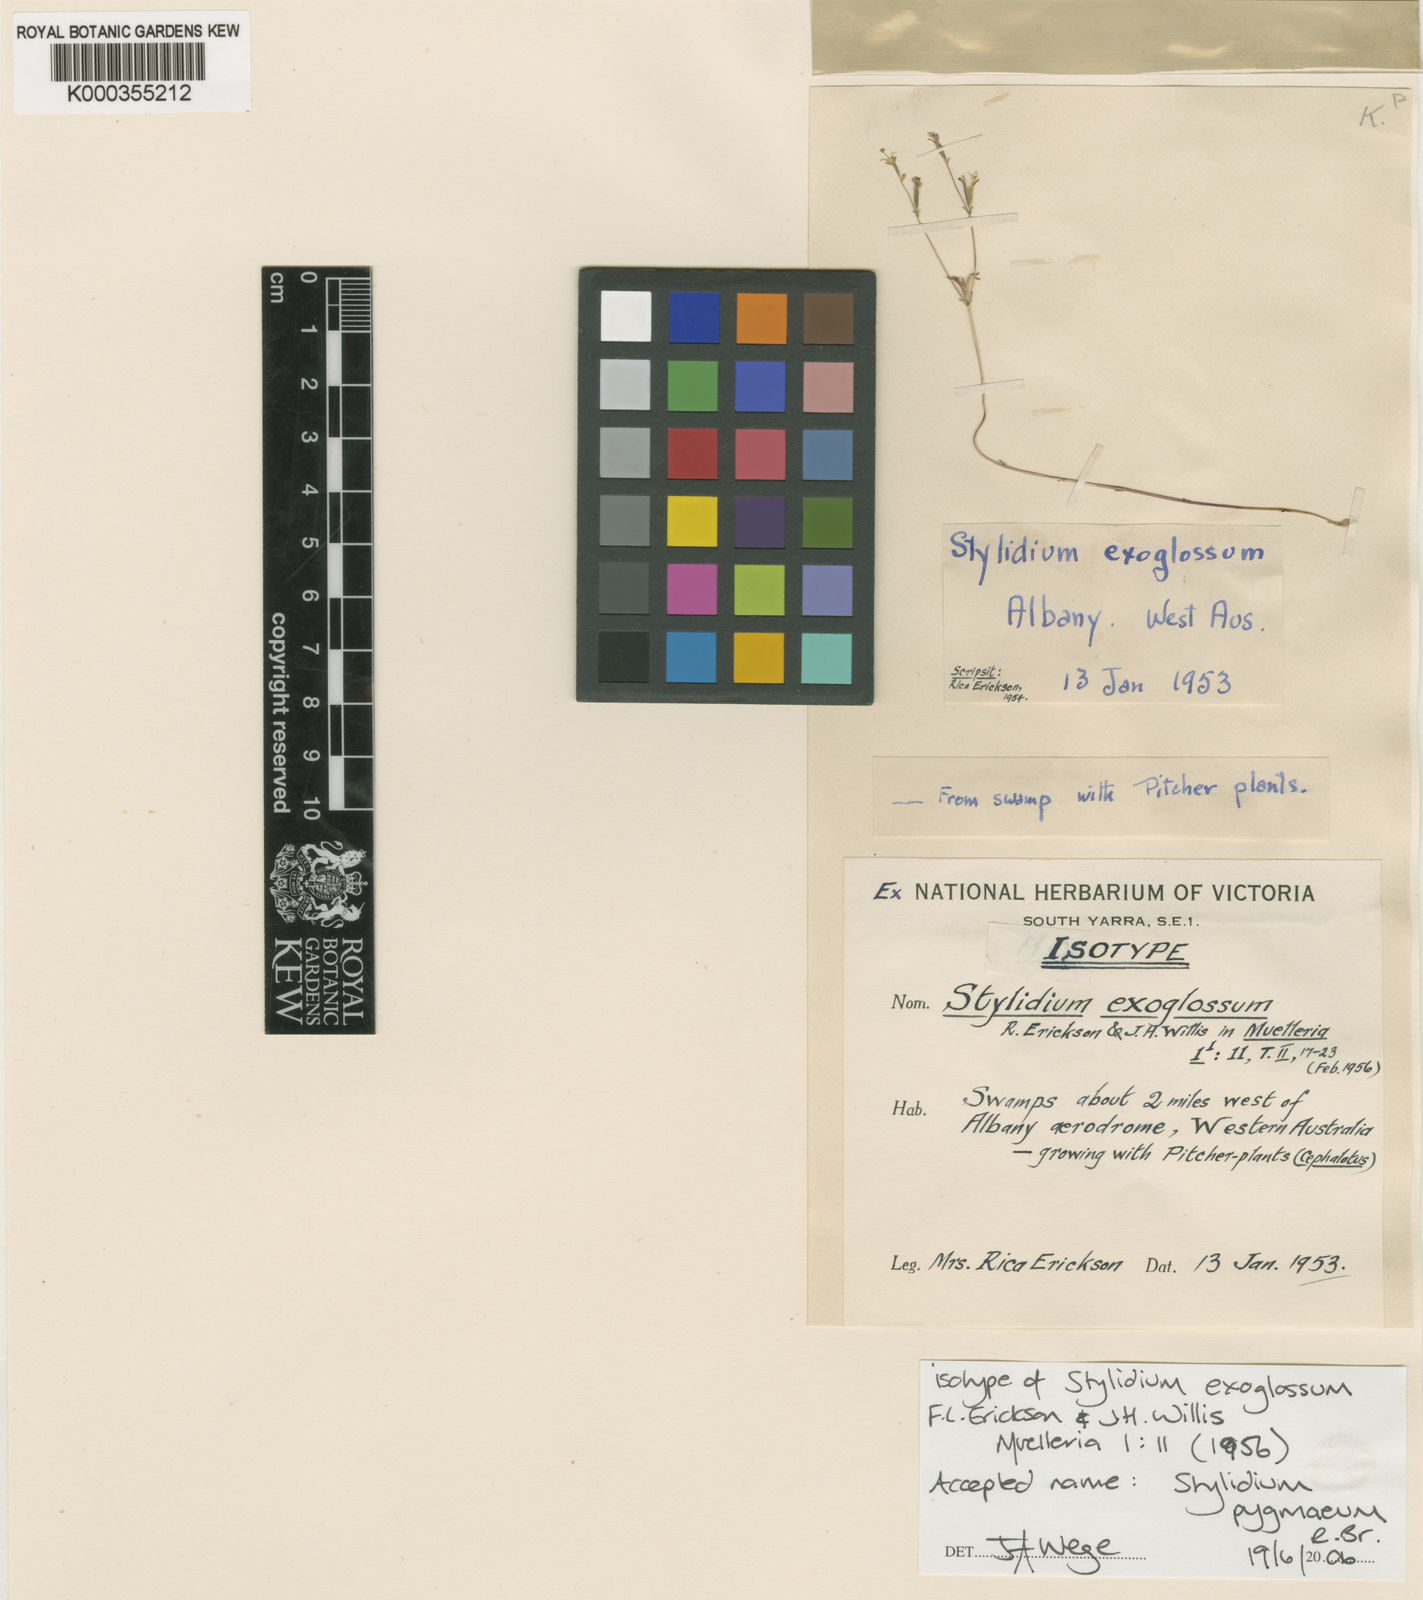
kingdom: Plantae
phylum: Tracheophyta
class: Magnoliopsida
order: Asterales
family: Stylidiaceae
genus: Stylidium
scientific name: Stylidium pygmaeum
